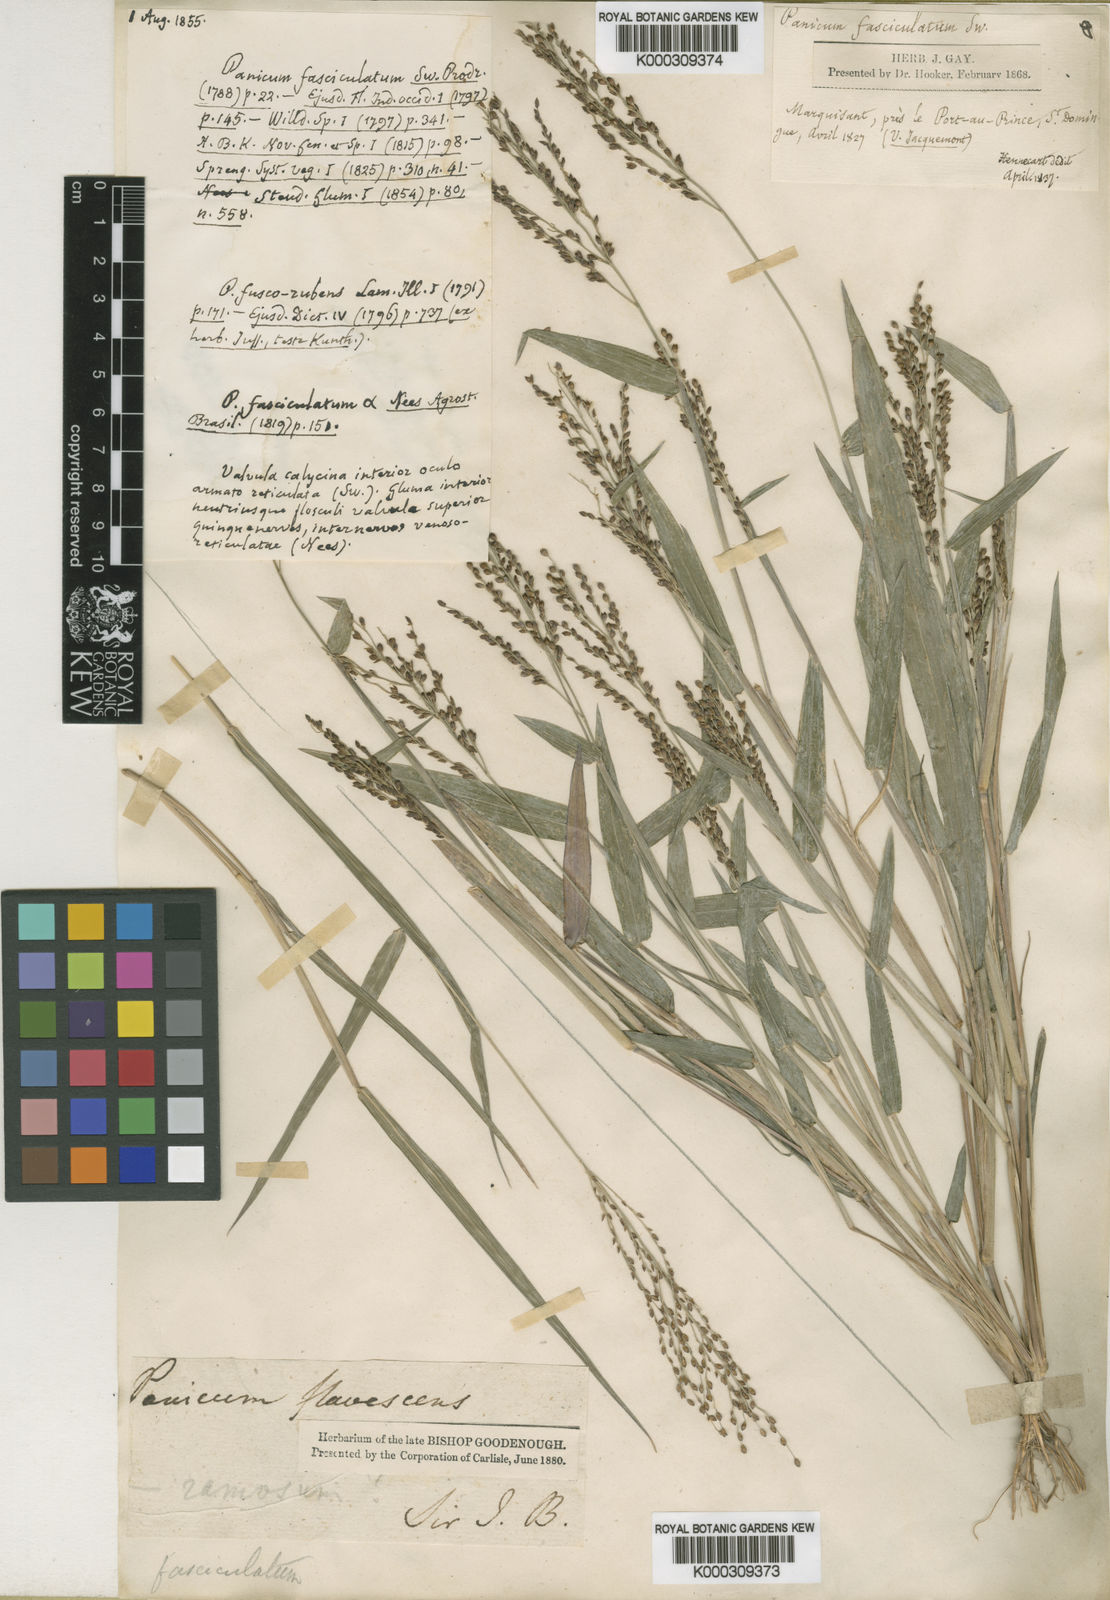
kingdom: Plantae
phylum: Tracheophyta
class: Liliopsida
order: Poales
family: Poaceae
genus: Urochloa
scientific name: Urochloa fusca
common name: Browntop signal grass
